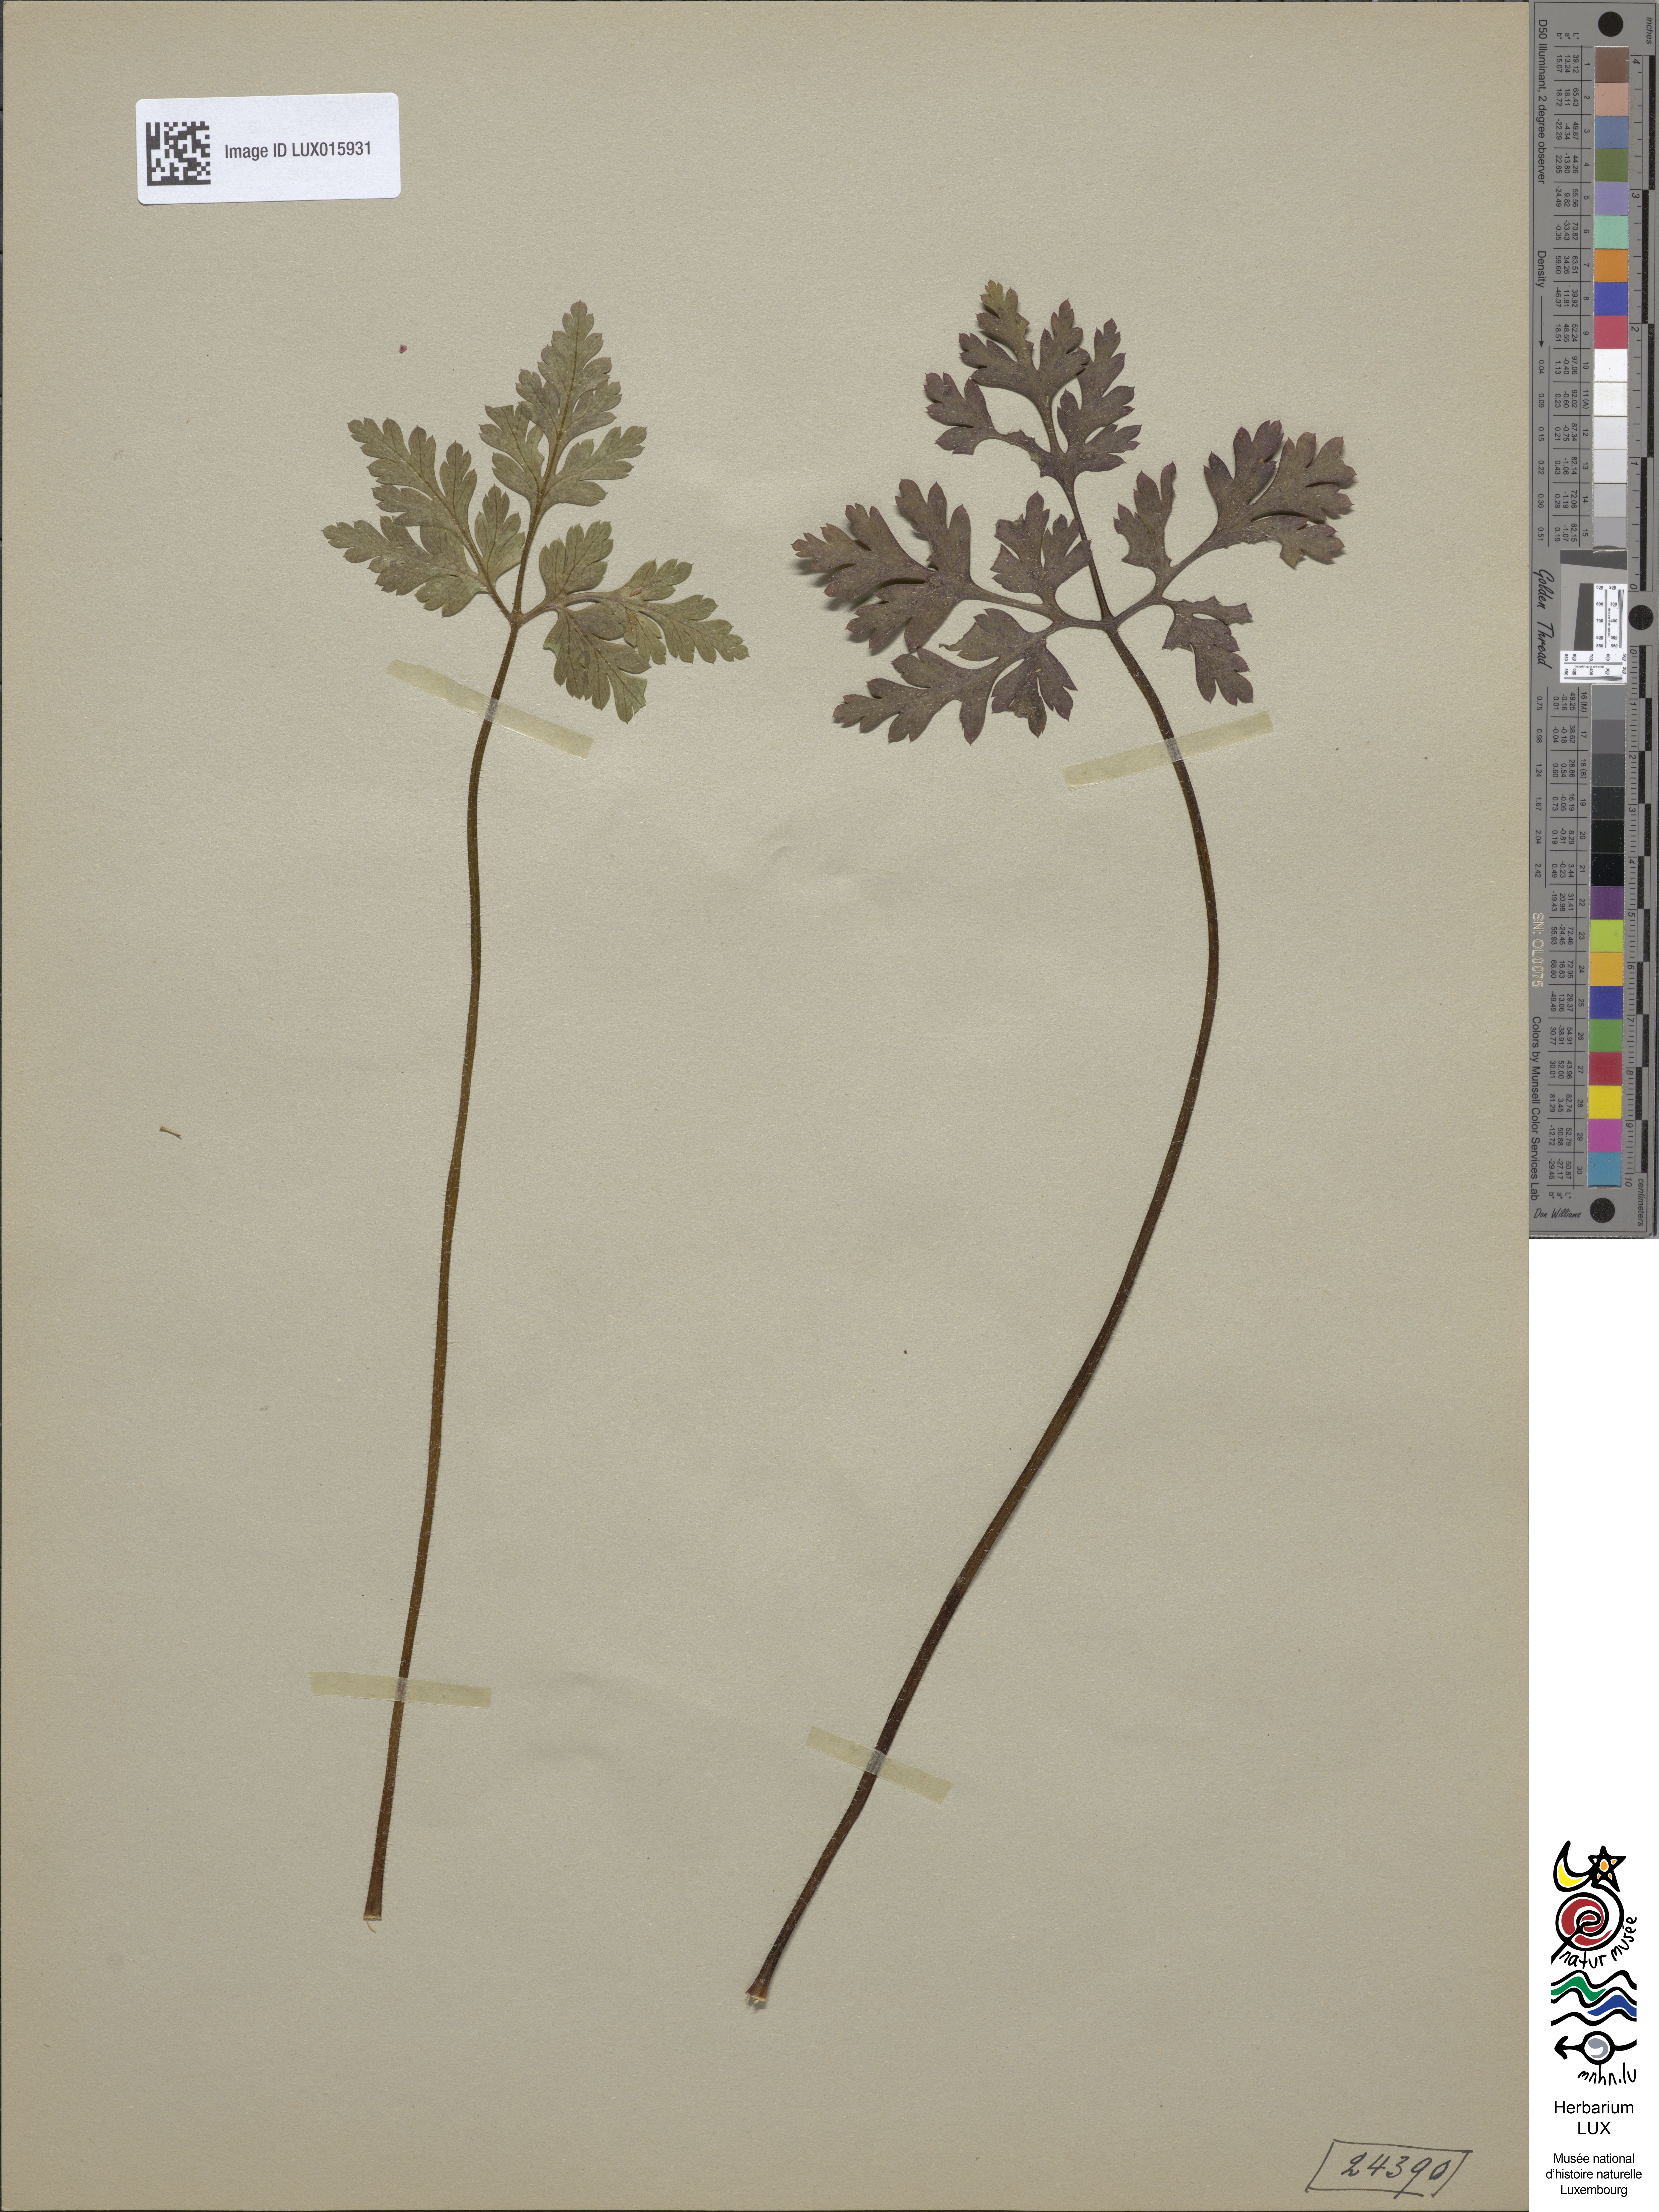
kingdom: Plantae
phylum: Tracheophyta
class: Magnoliopsida
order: Geraniales
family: Geraniaceae
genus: Geranium
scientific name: Geranium robertianum
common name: Herb-robert
